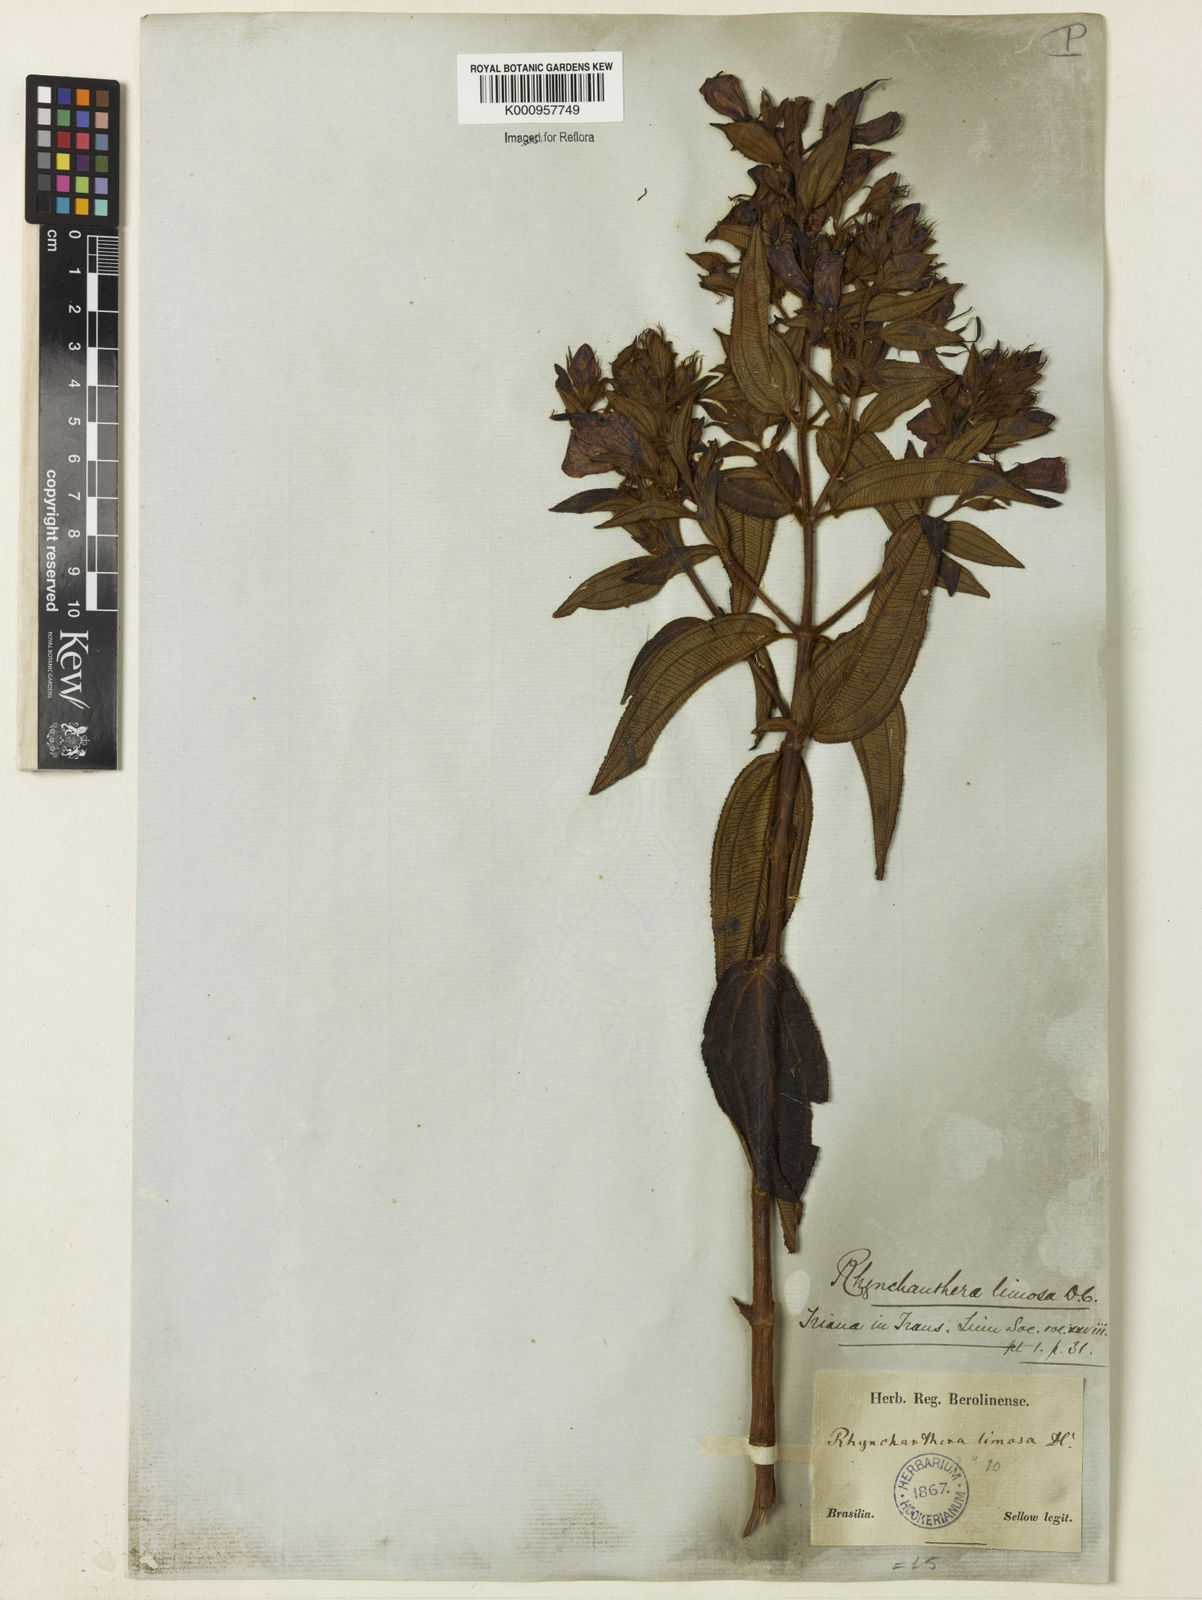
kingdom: Plantae
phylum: Tracheophyta
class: Magnoliopsida
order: Myrtales
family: Melastomataceae
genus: Rhynchanthera
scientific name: Rhynchanthera grandiflora
